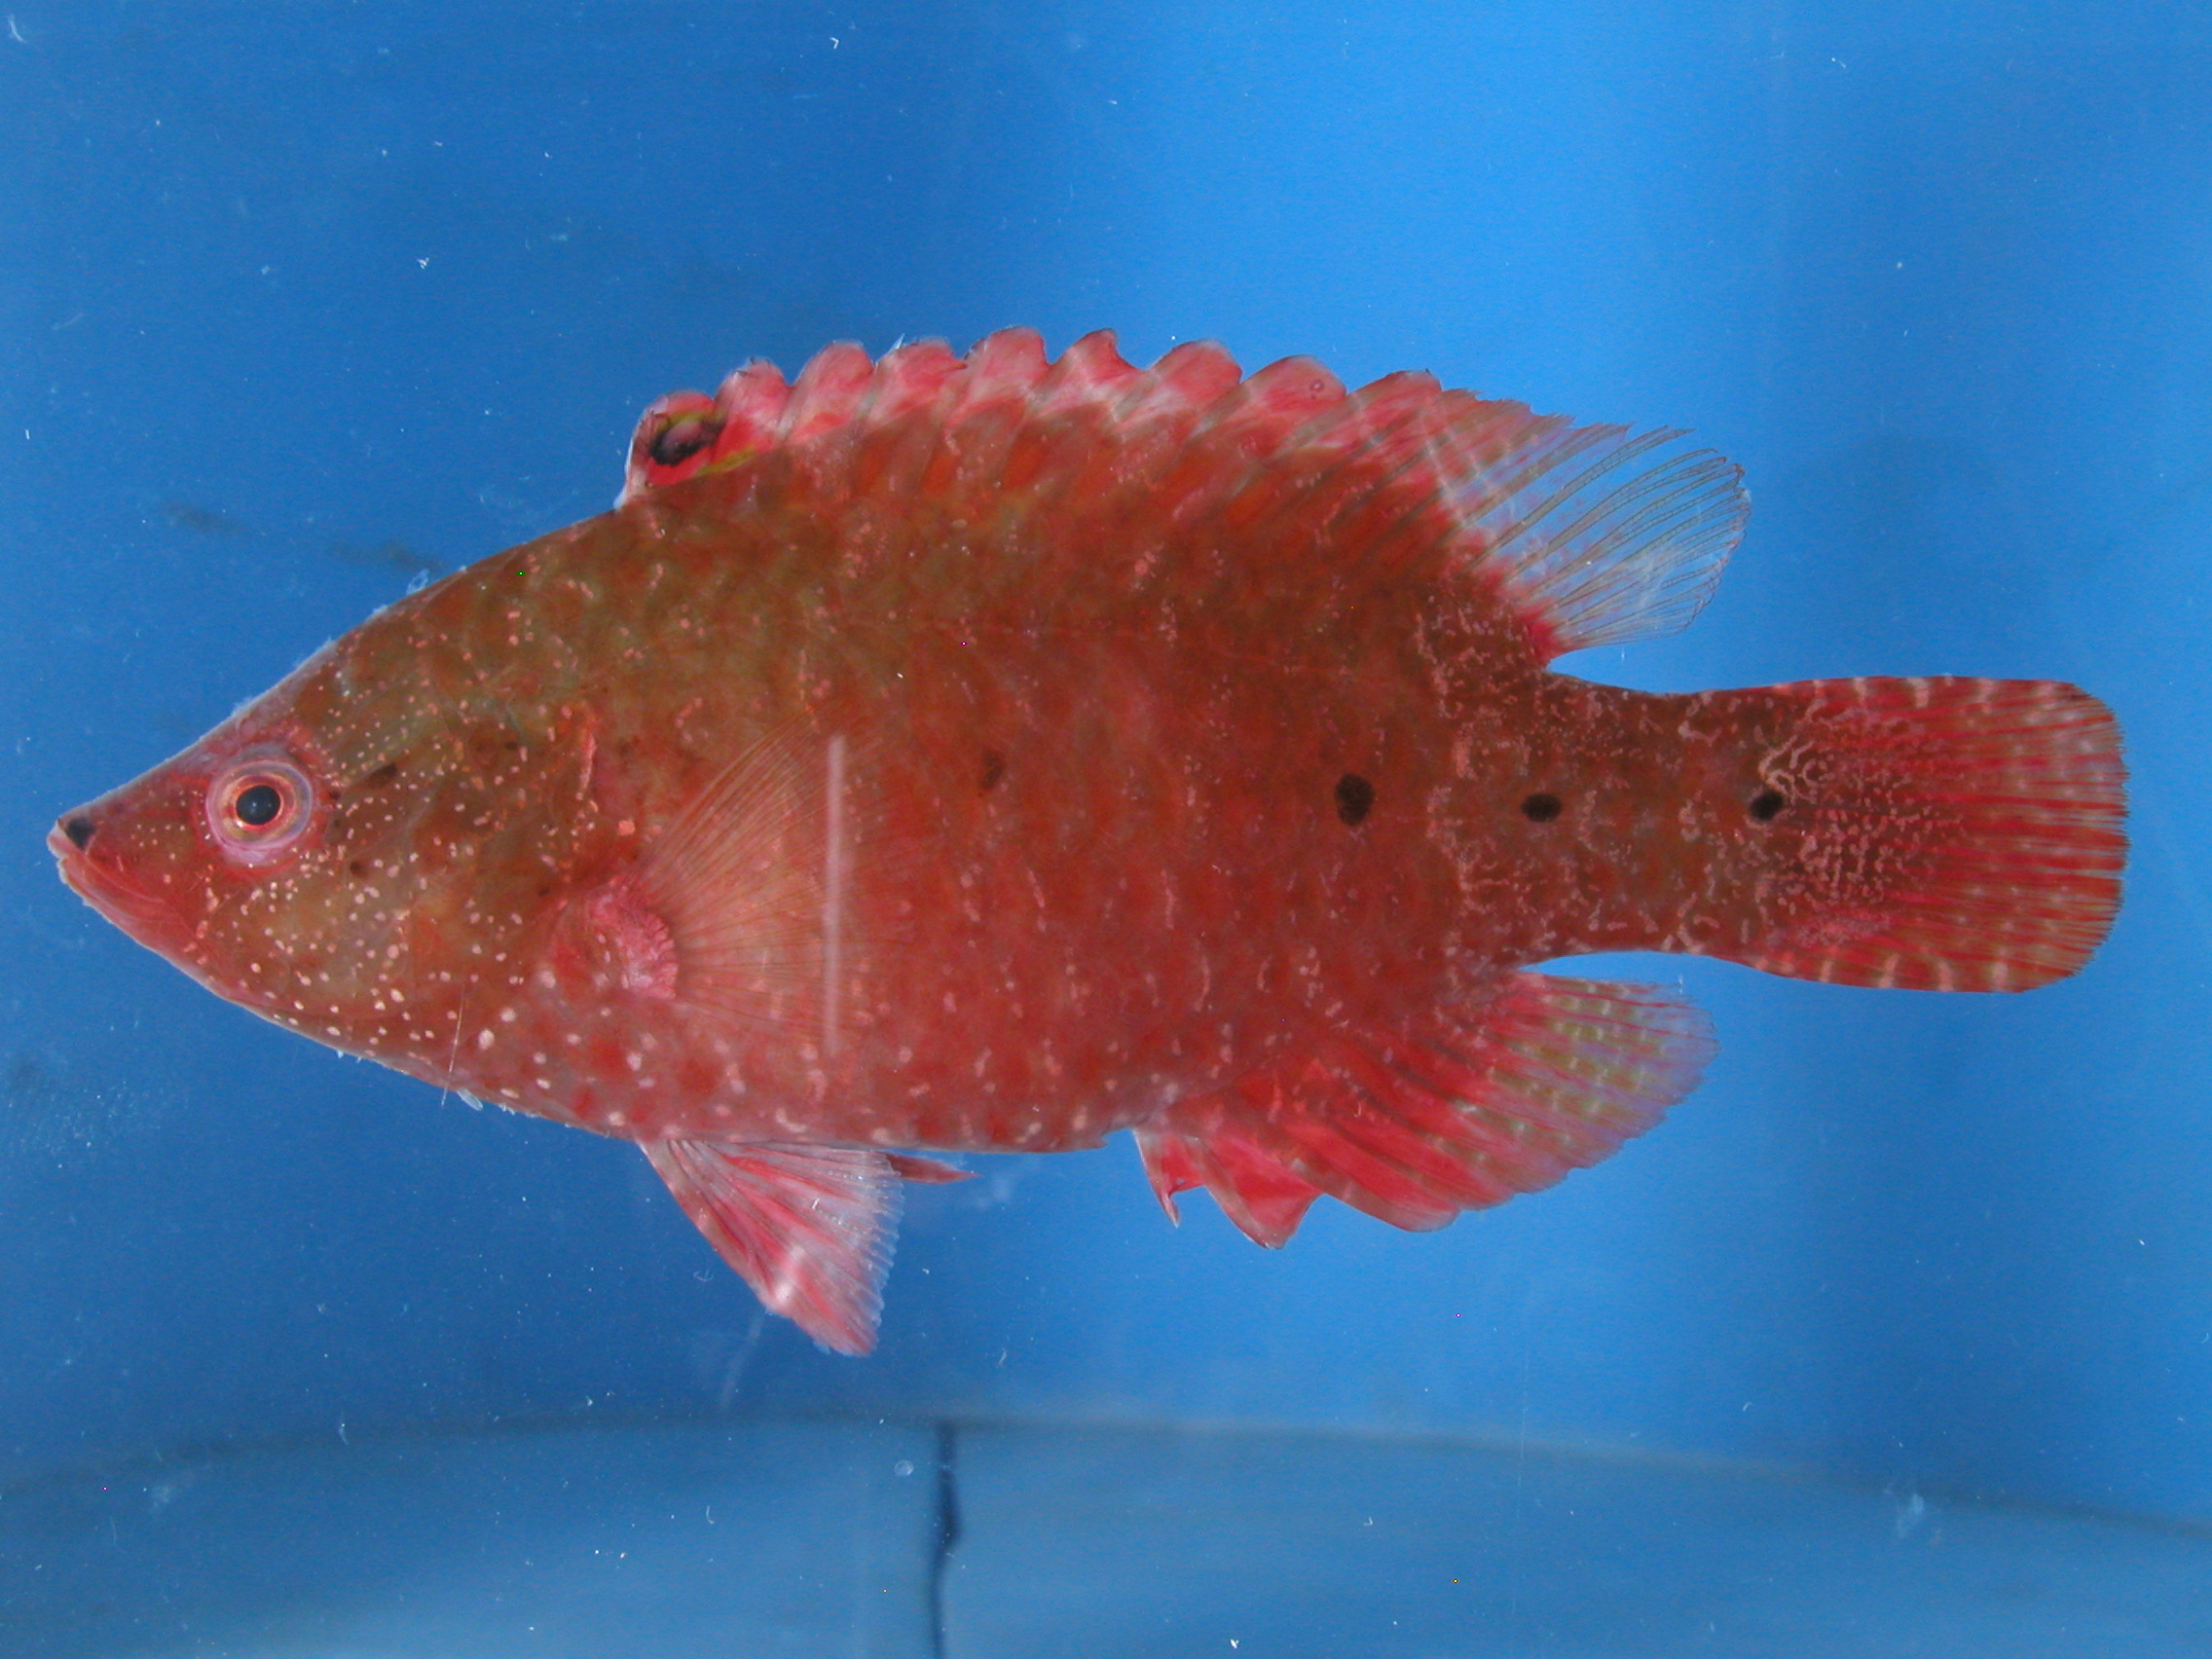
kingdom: Animalia
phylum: Chordata
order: Perciformes
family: Labridae
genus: Cheilinus
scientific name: Cheilinus oxycephalus
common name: Snooty wrasse
